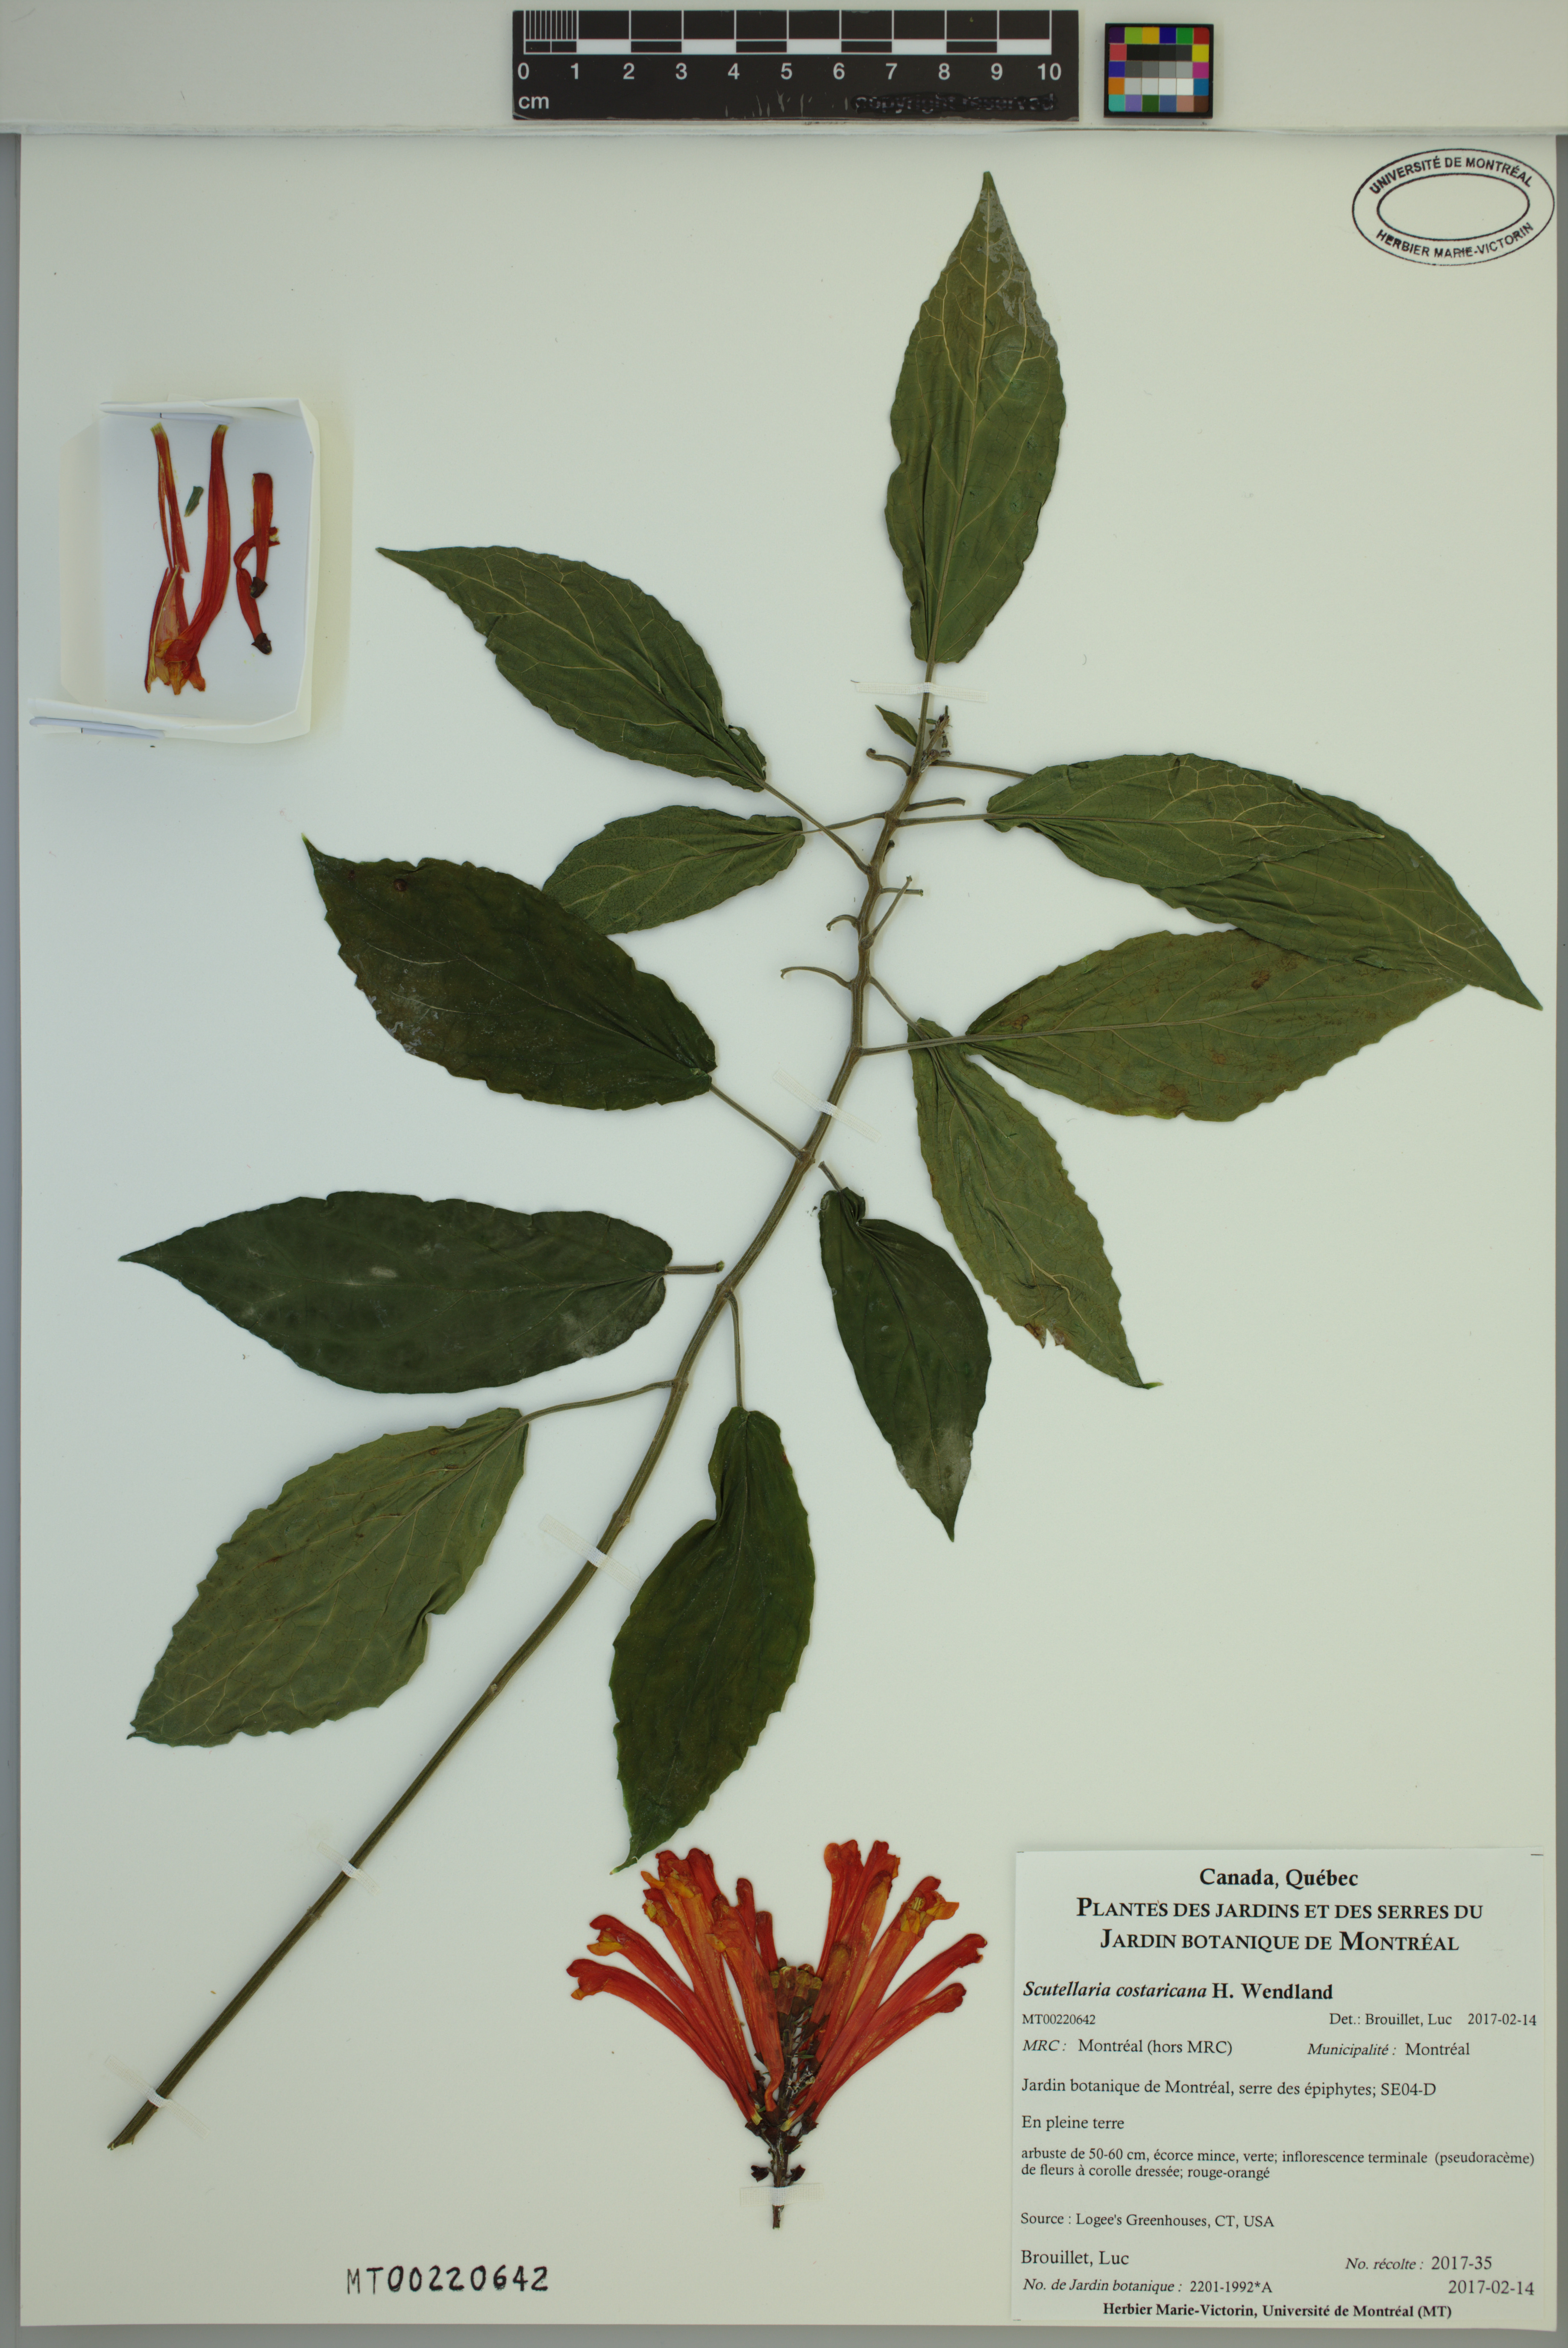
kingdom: Plantae
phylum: Tracheophyta
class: Magnoliopsida
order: Lamiales
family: Lamiaceae
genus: Scutellaria
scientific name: Scutellaria costaricana
